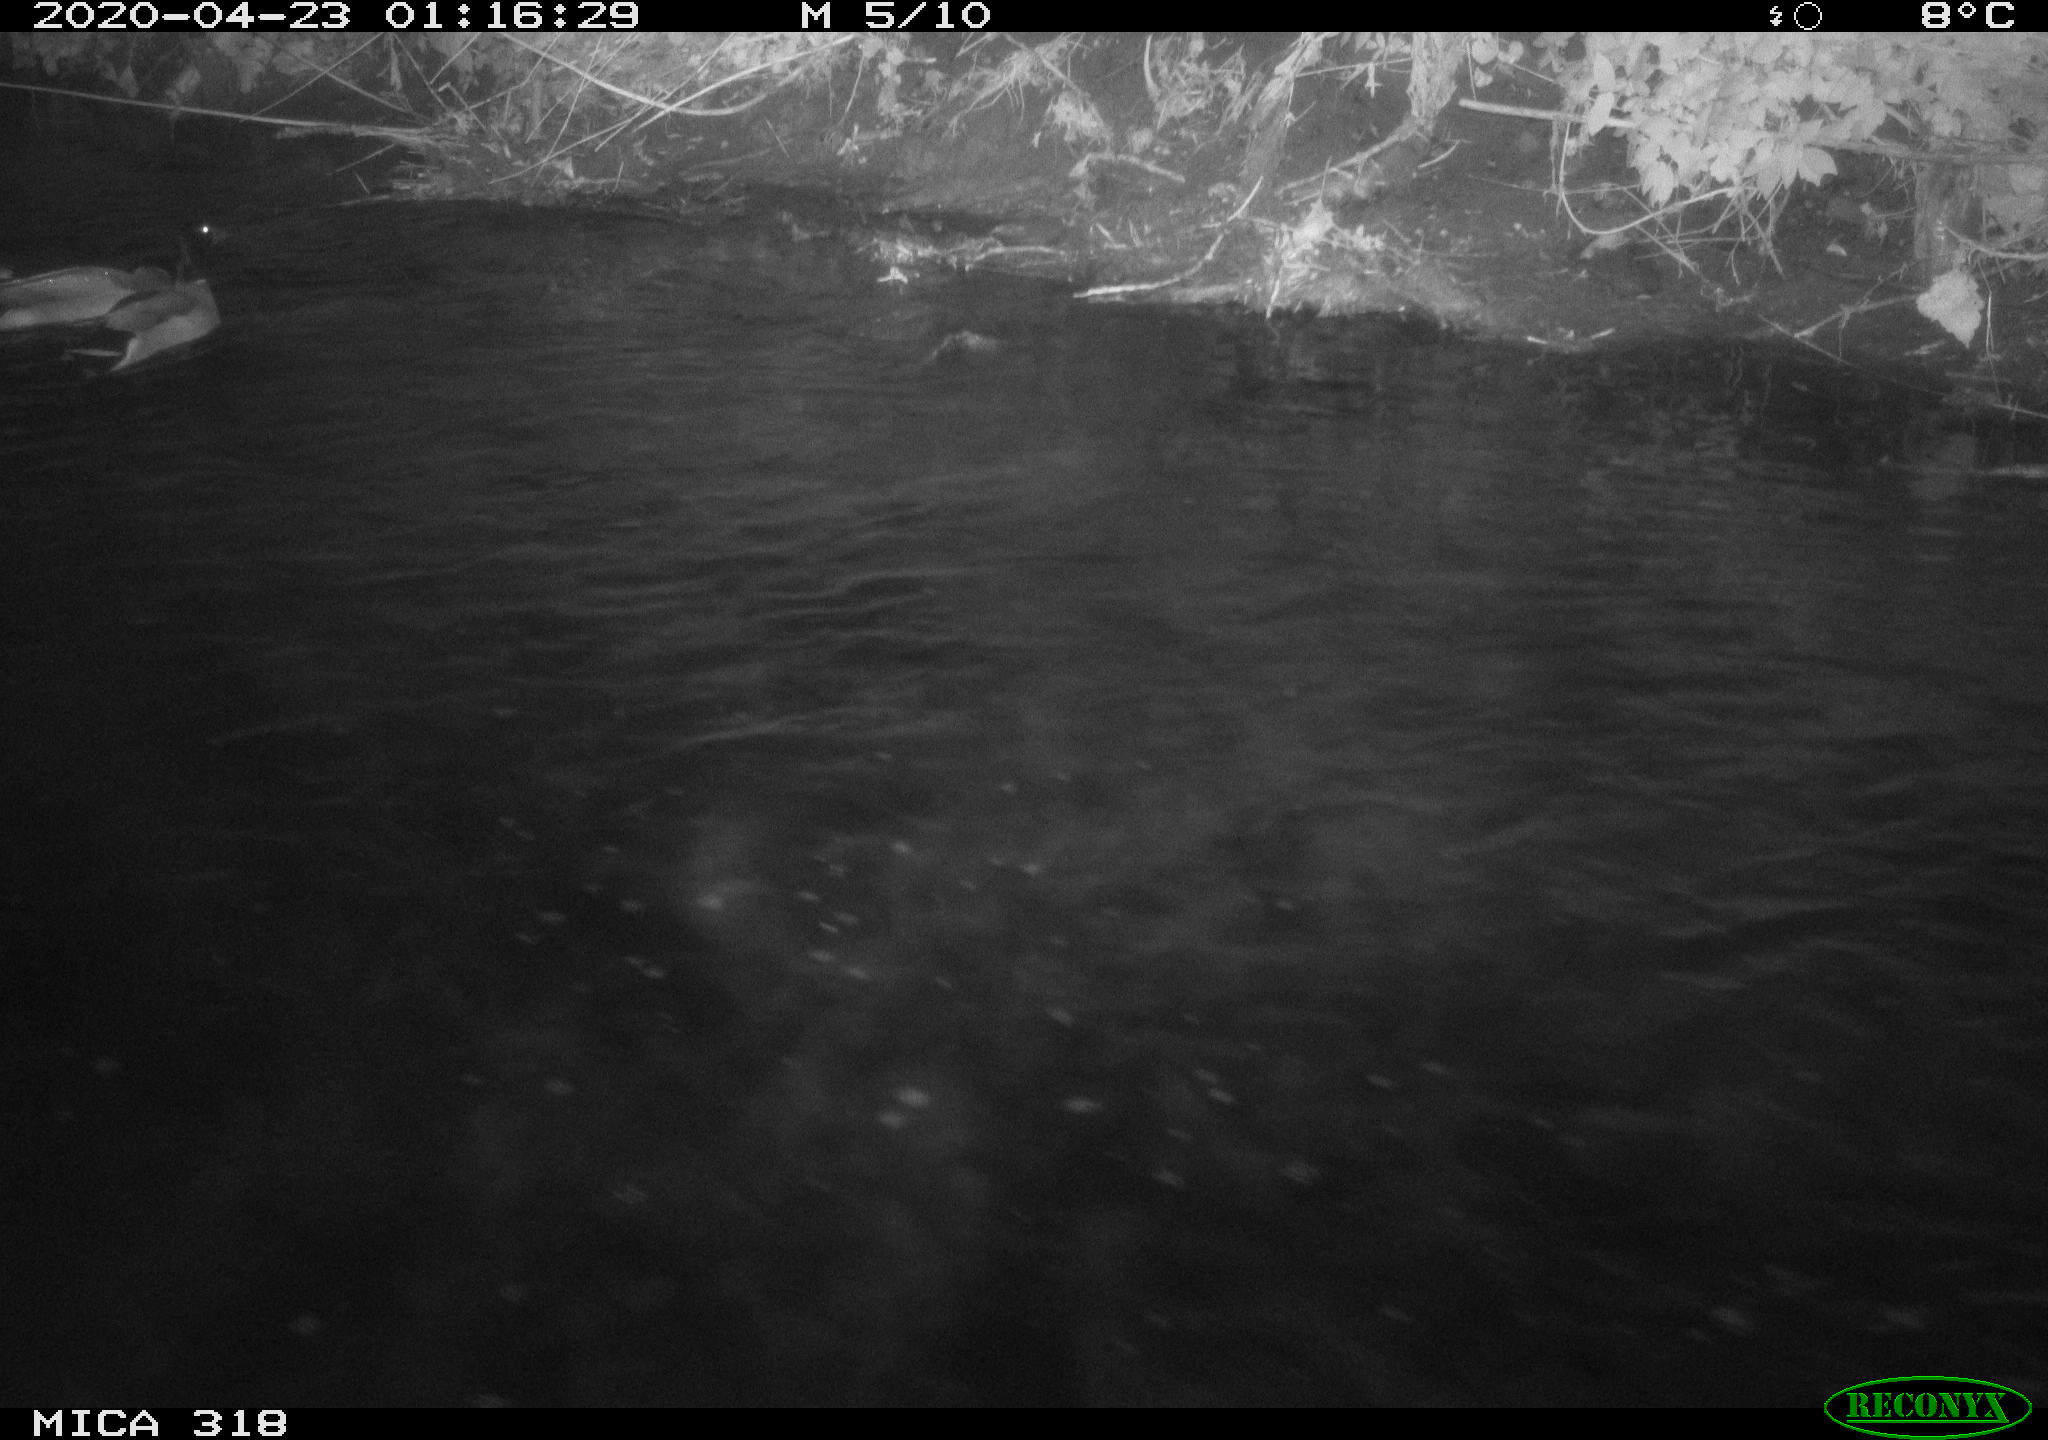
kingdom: Animalia
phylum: Chordata
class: Aves
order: Anseriformes
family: Anatidae
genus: Anas
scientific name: Anas platyrhynchos
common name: Mallard
